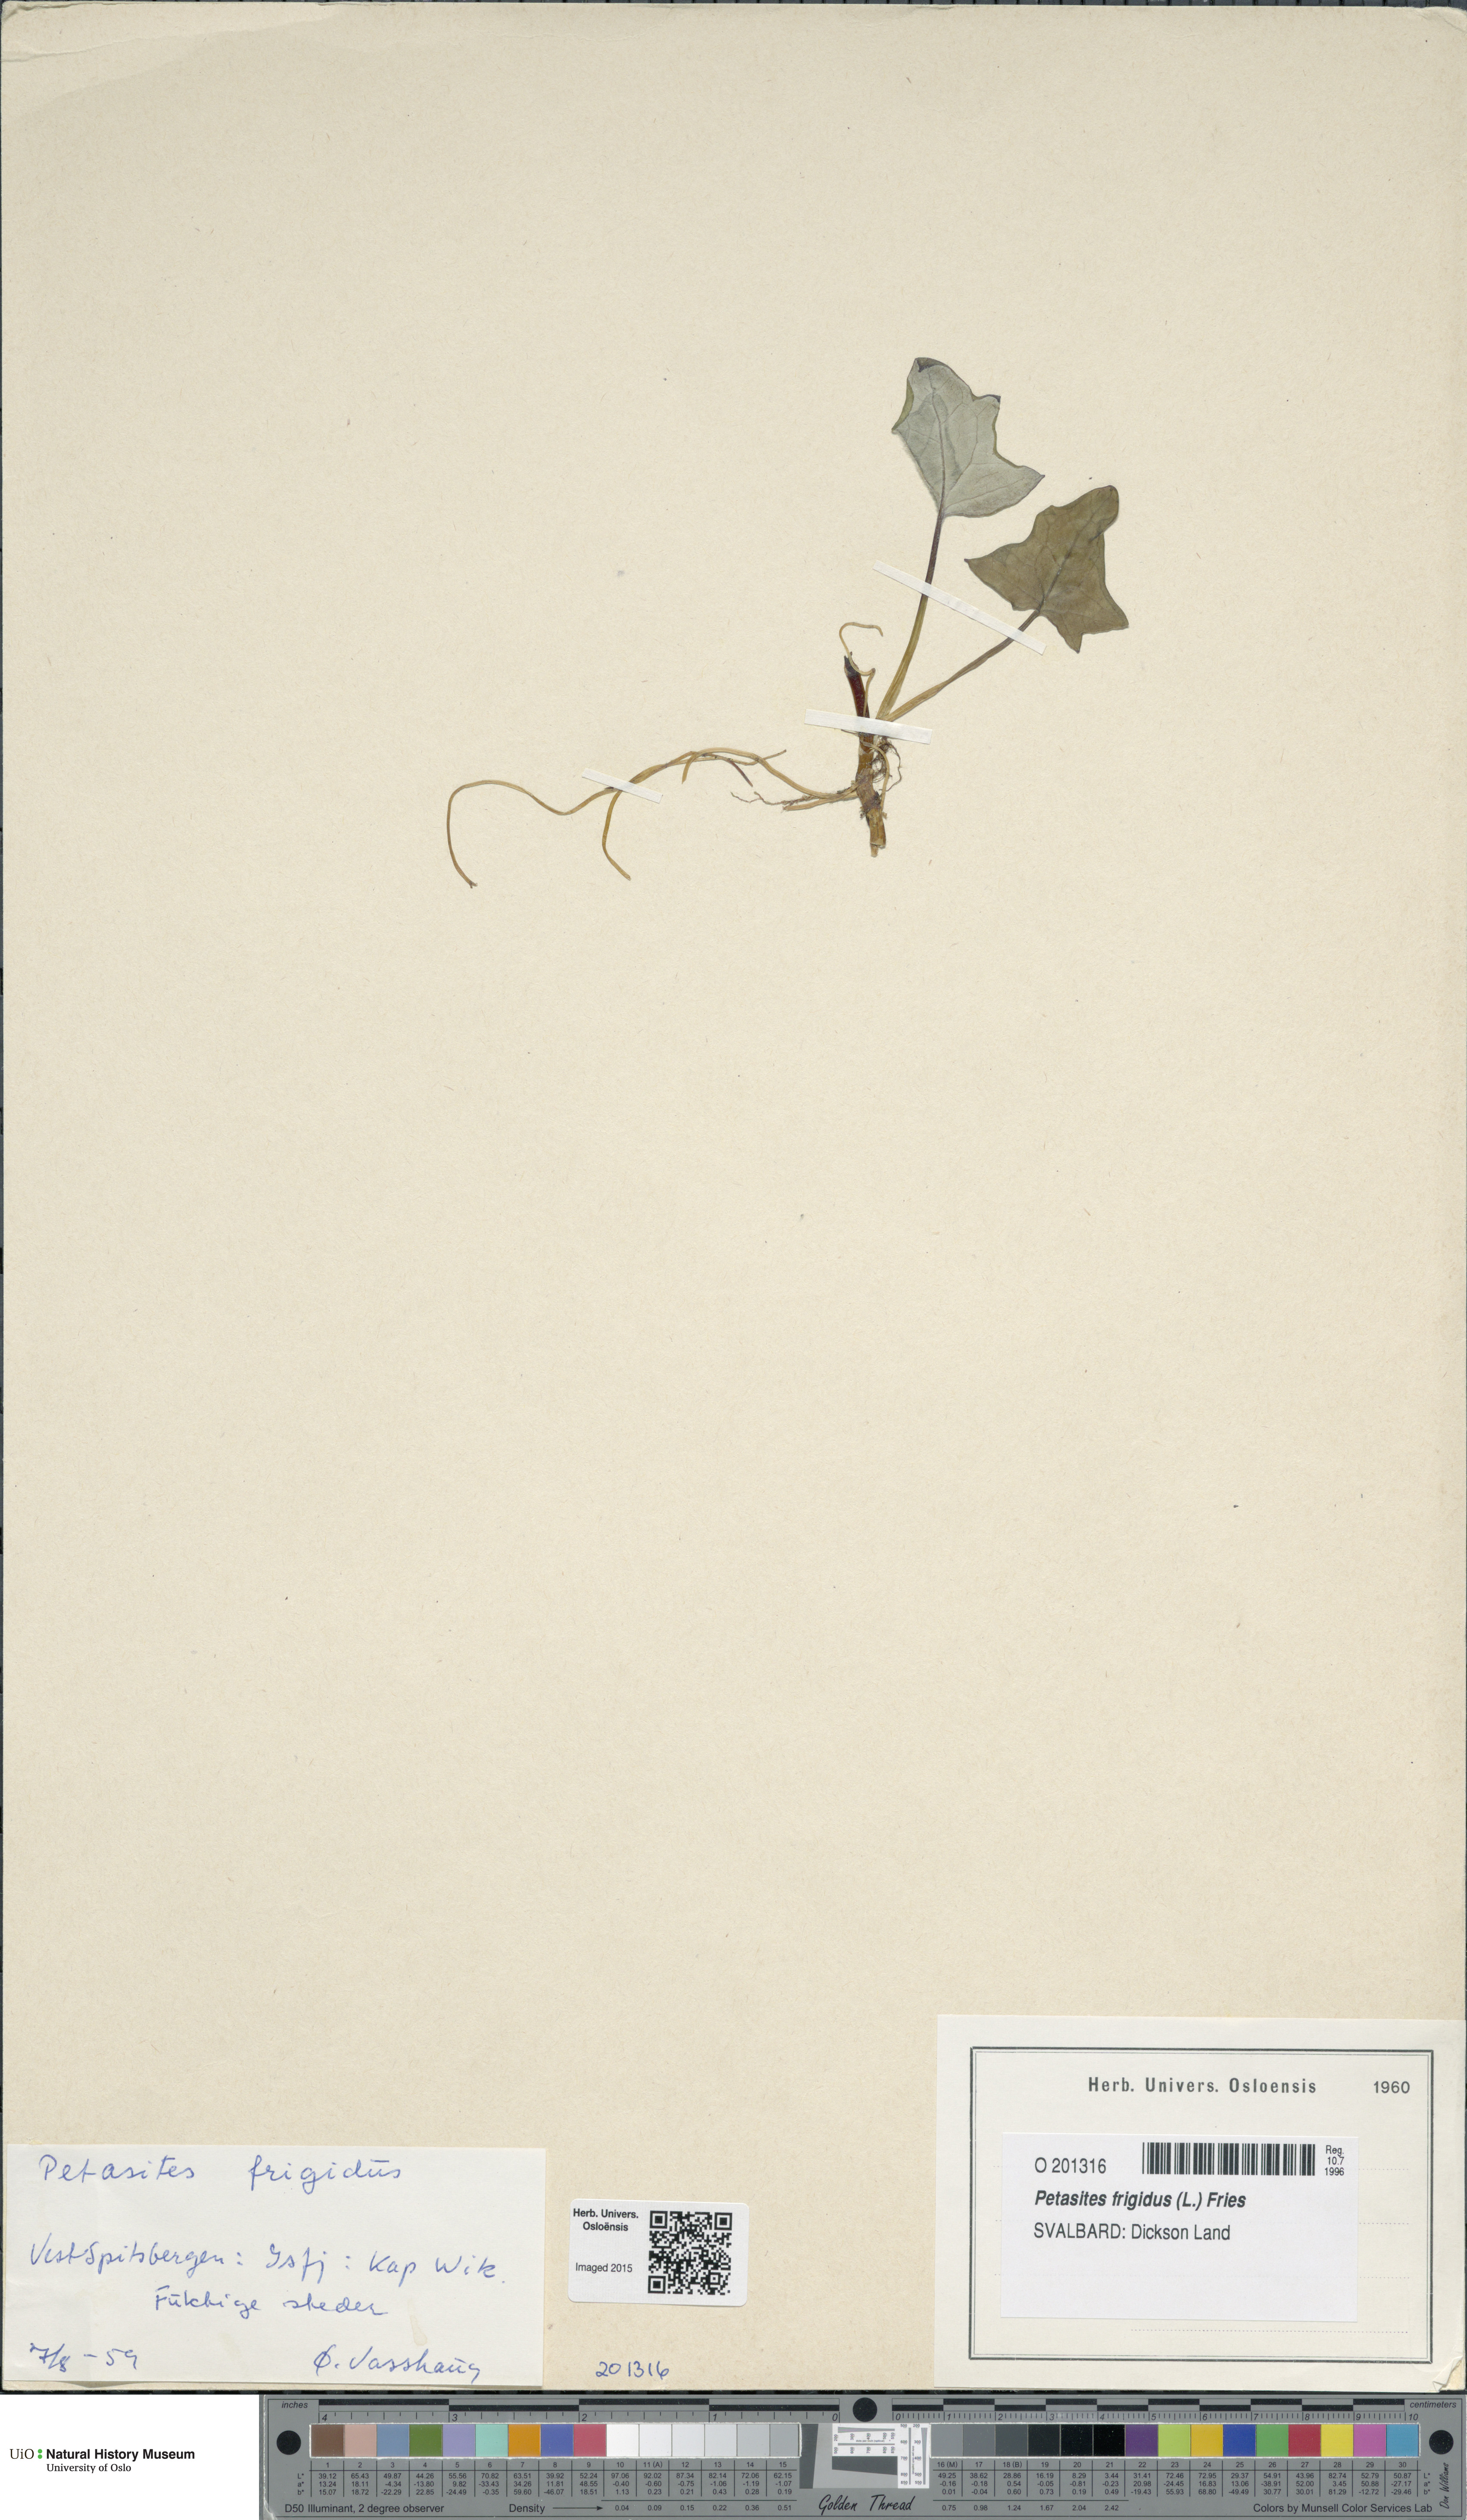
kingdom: Plantae
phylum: Tracheophyta
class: Magnoliopsida
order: Asterales
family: Asteraceae
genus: Petasites
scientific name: Petasites frigidus
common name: Arctic butterbur
